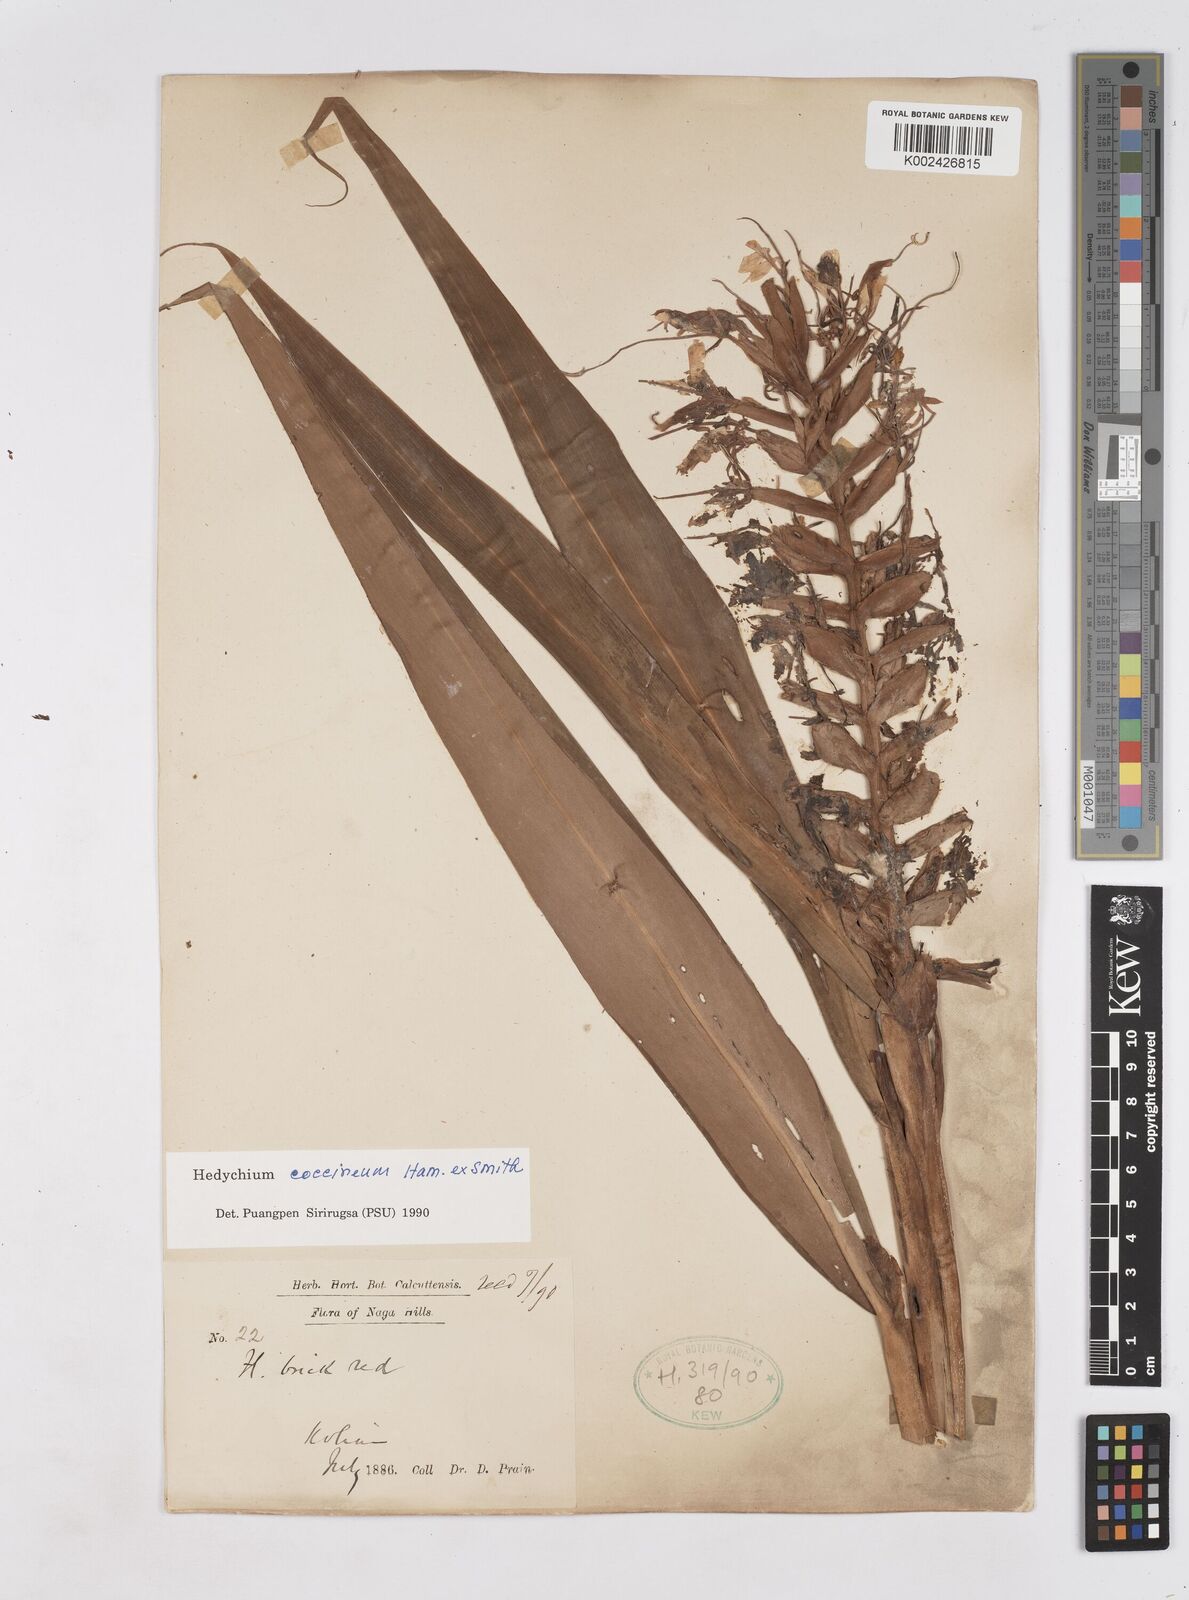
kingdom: Plantae
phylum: Tracheophyta
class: Liliopsida
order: Zingiberales
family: Zingiberaceae
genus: Hedychium
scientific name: Hedychium coccineum
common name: Red ginger-lily
